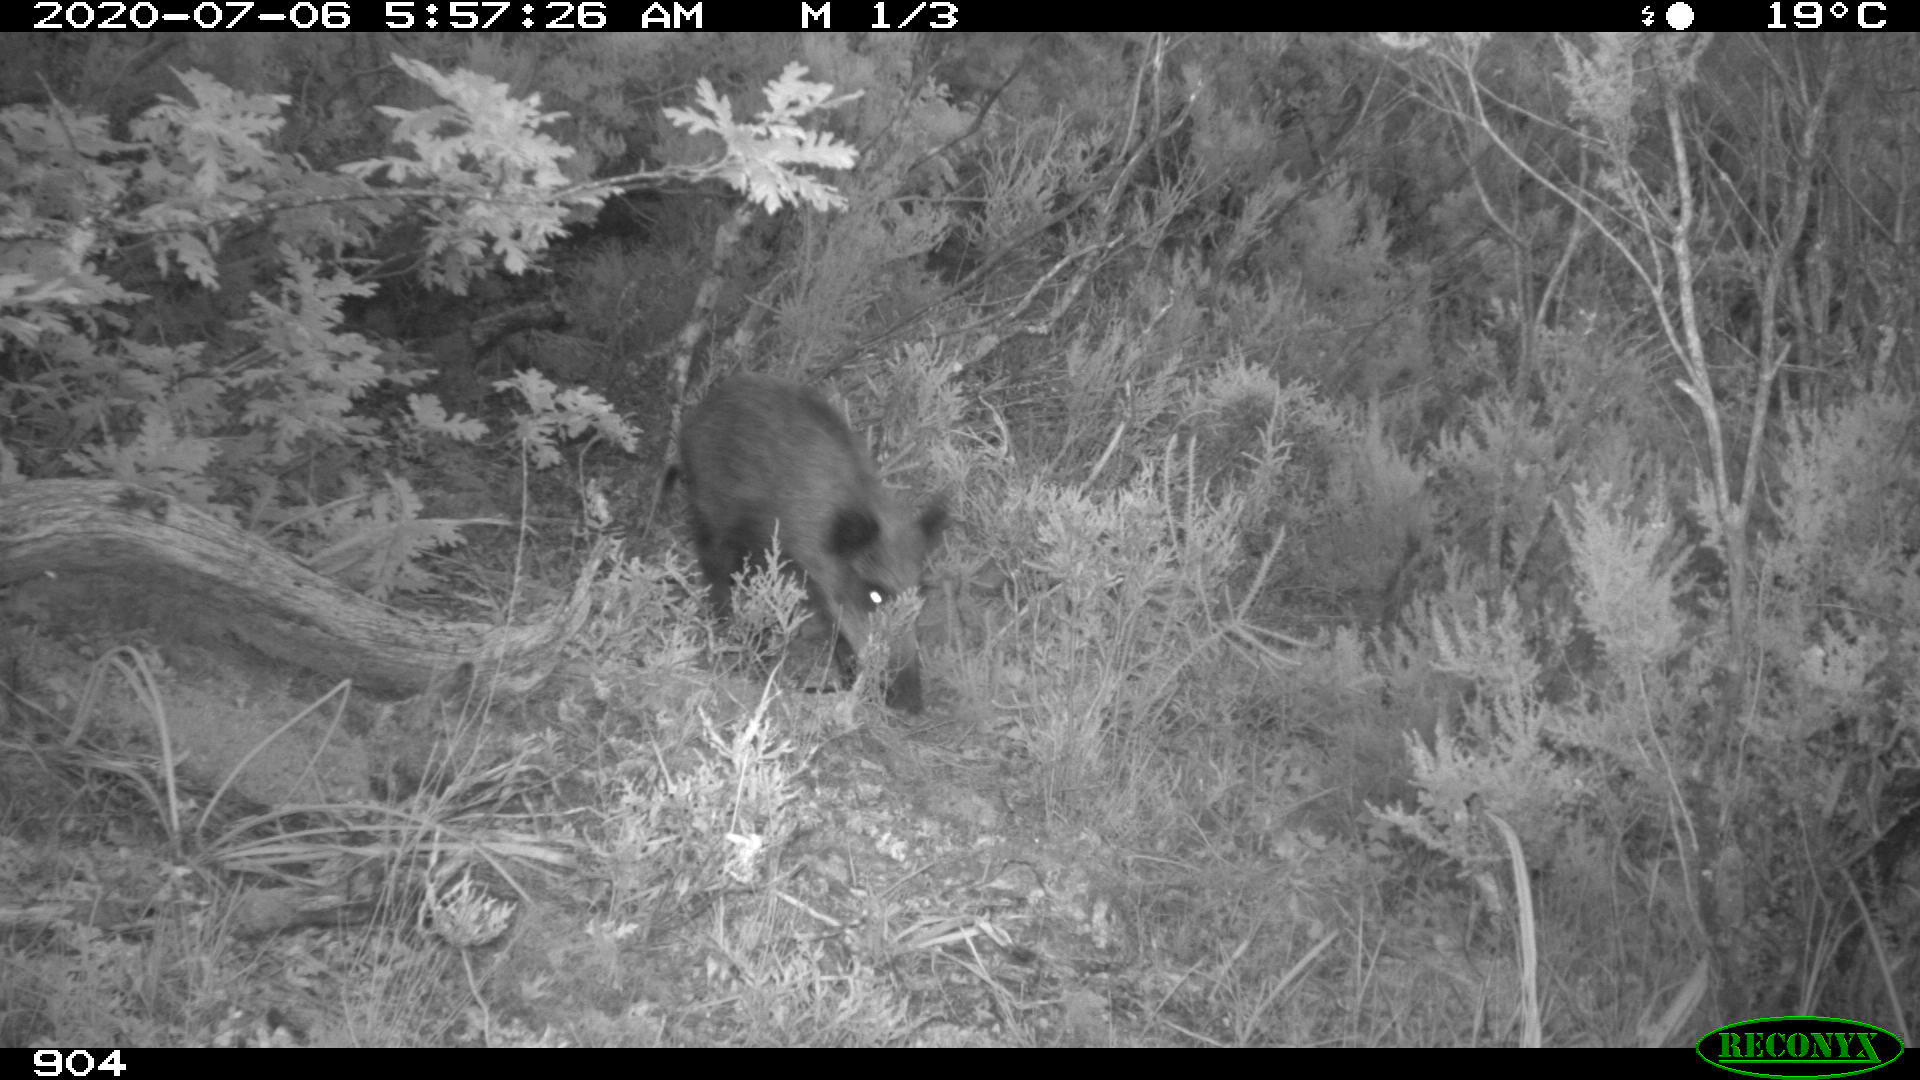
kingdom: Animalia
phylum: Chordata
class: Mammalia
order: Artiodactyla
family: Suidae
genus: Sus
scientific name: Sus scrofa
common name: Wild boar
